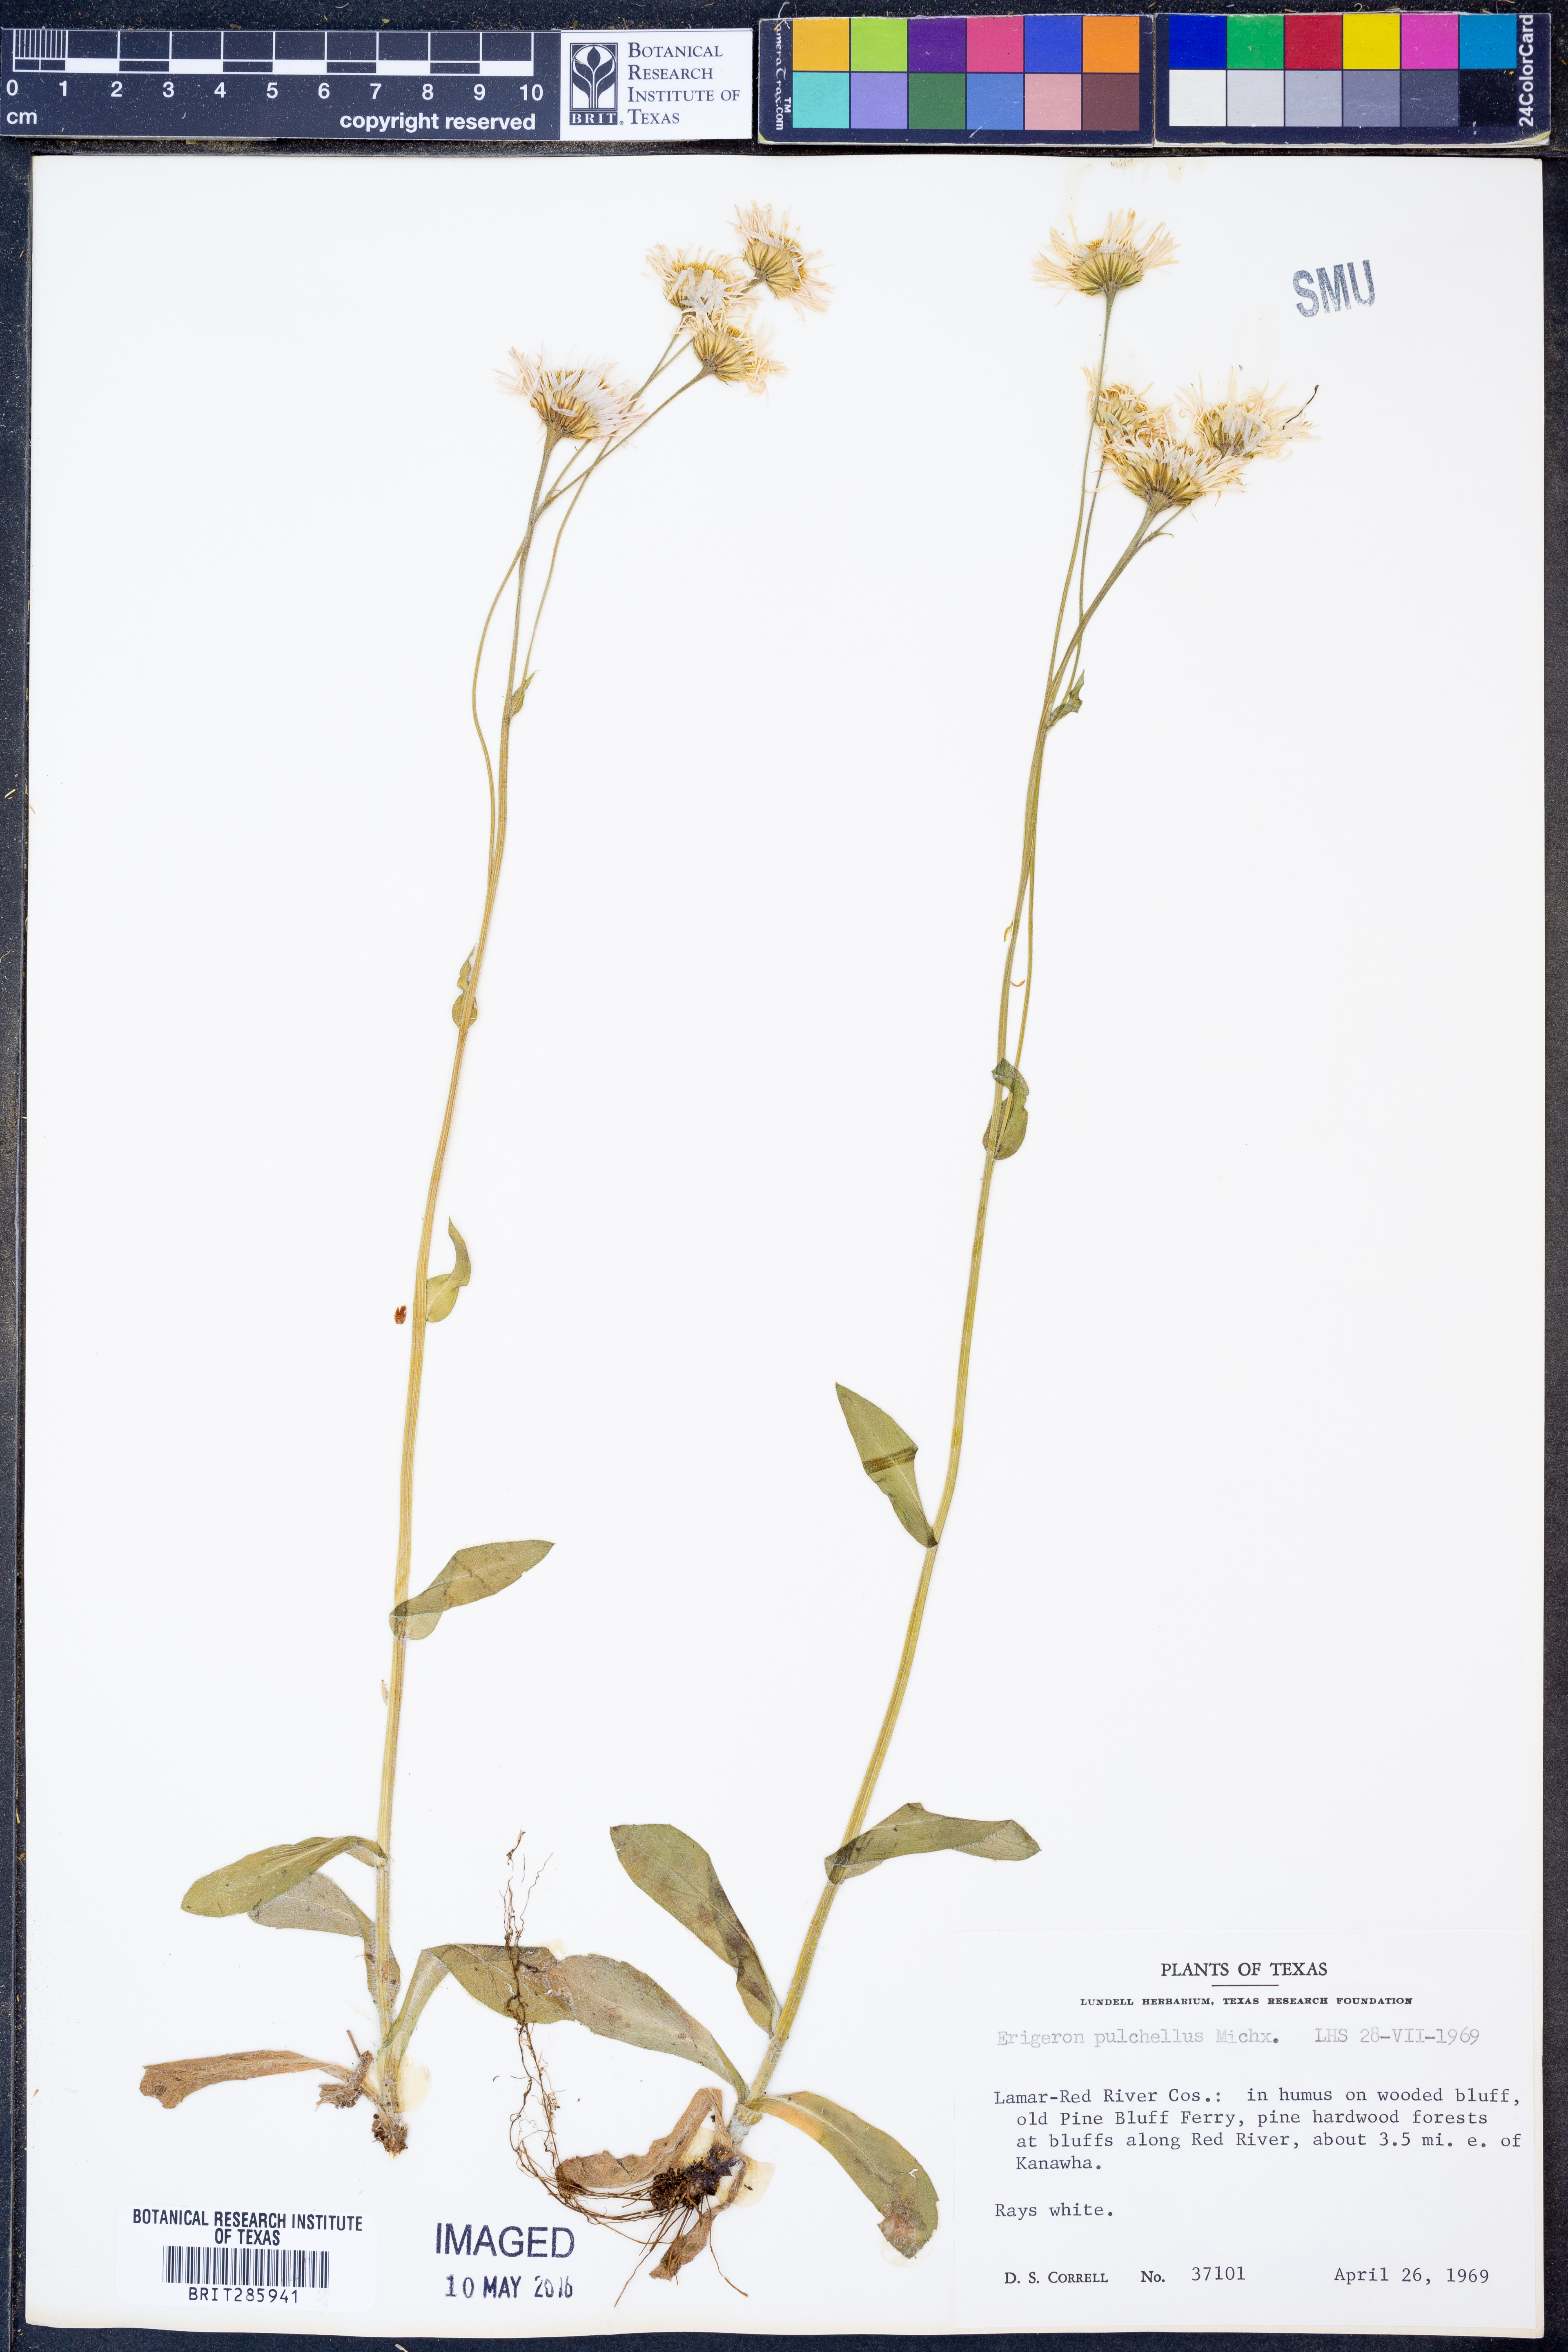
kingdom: Plantae
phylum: Tracheophyta
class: Magnoliopsida
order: Asterales
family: Asteraceae
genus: Erigeron
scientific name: Erigeron pulchellus
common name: Hairy fleabane
